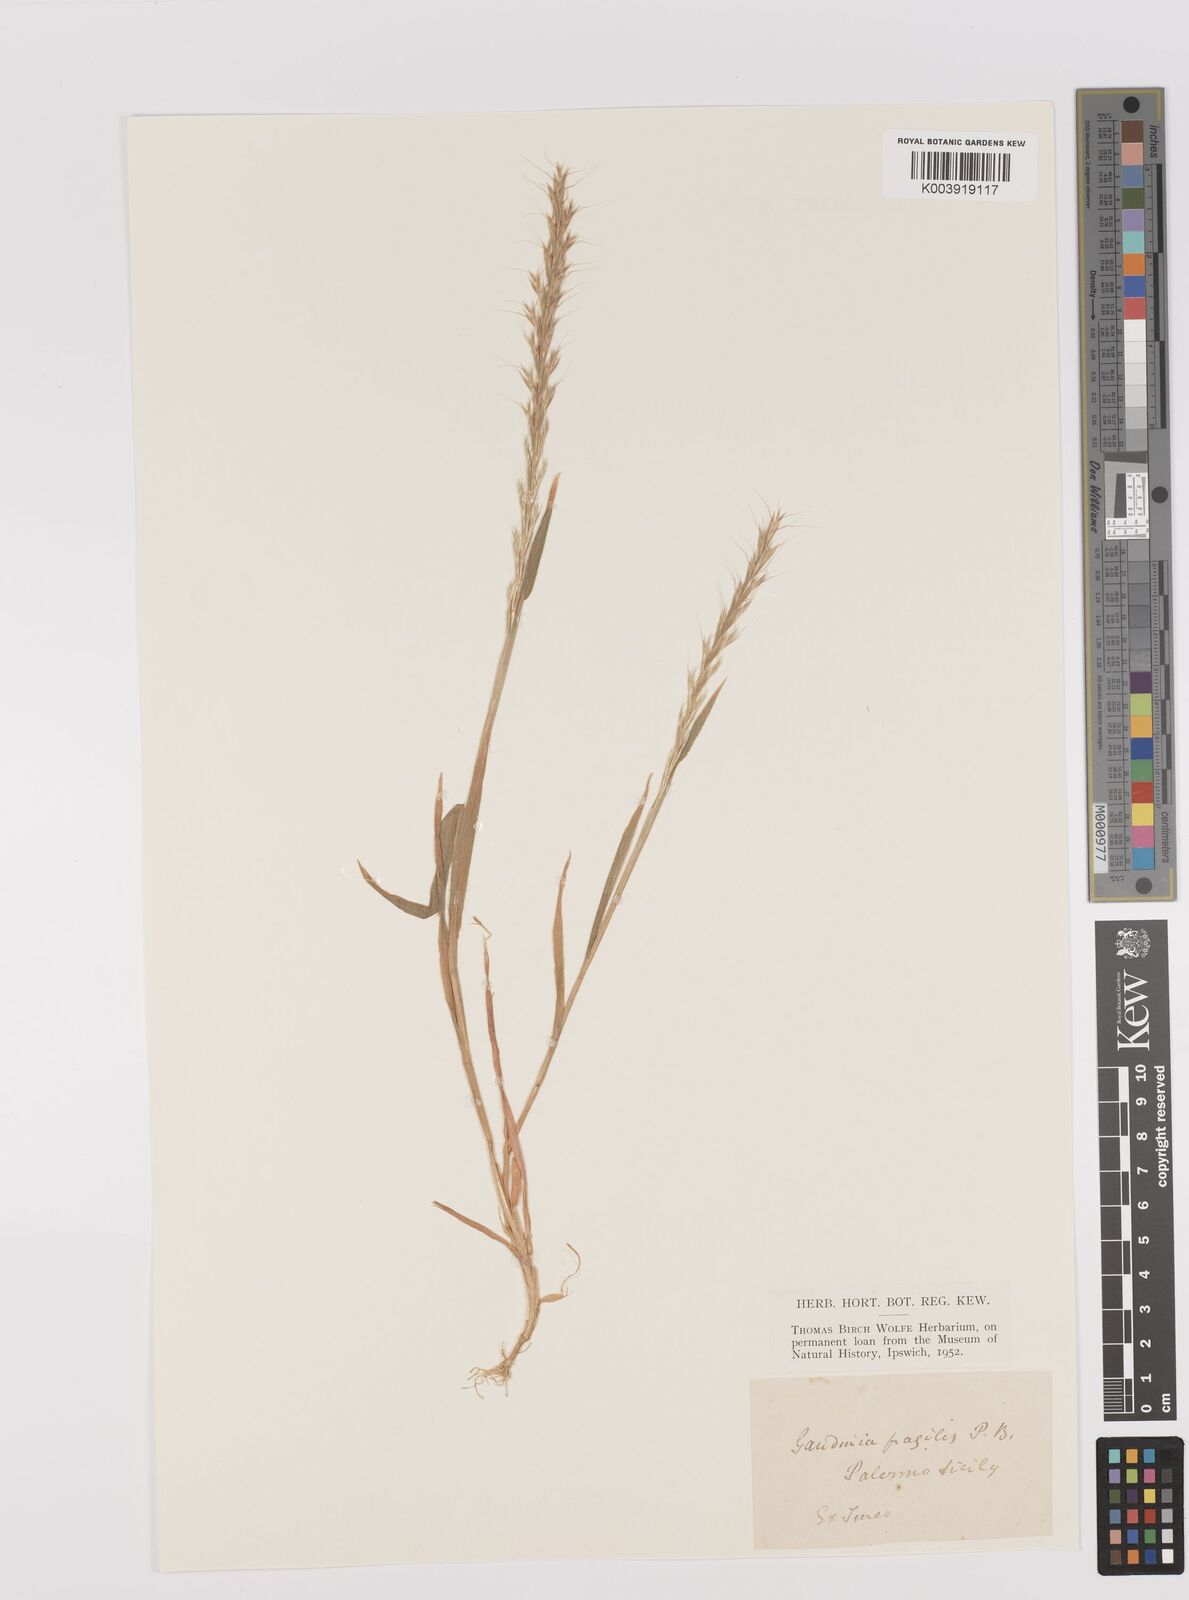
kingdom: Plantae
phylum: Tracheophyta
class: Liliopsida
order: Poales
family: Poaceae
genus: Gaudinia
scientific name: Gaudinia fragilis
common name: French oat-grass
